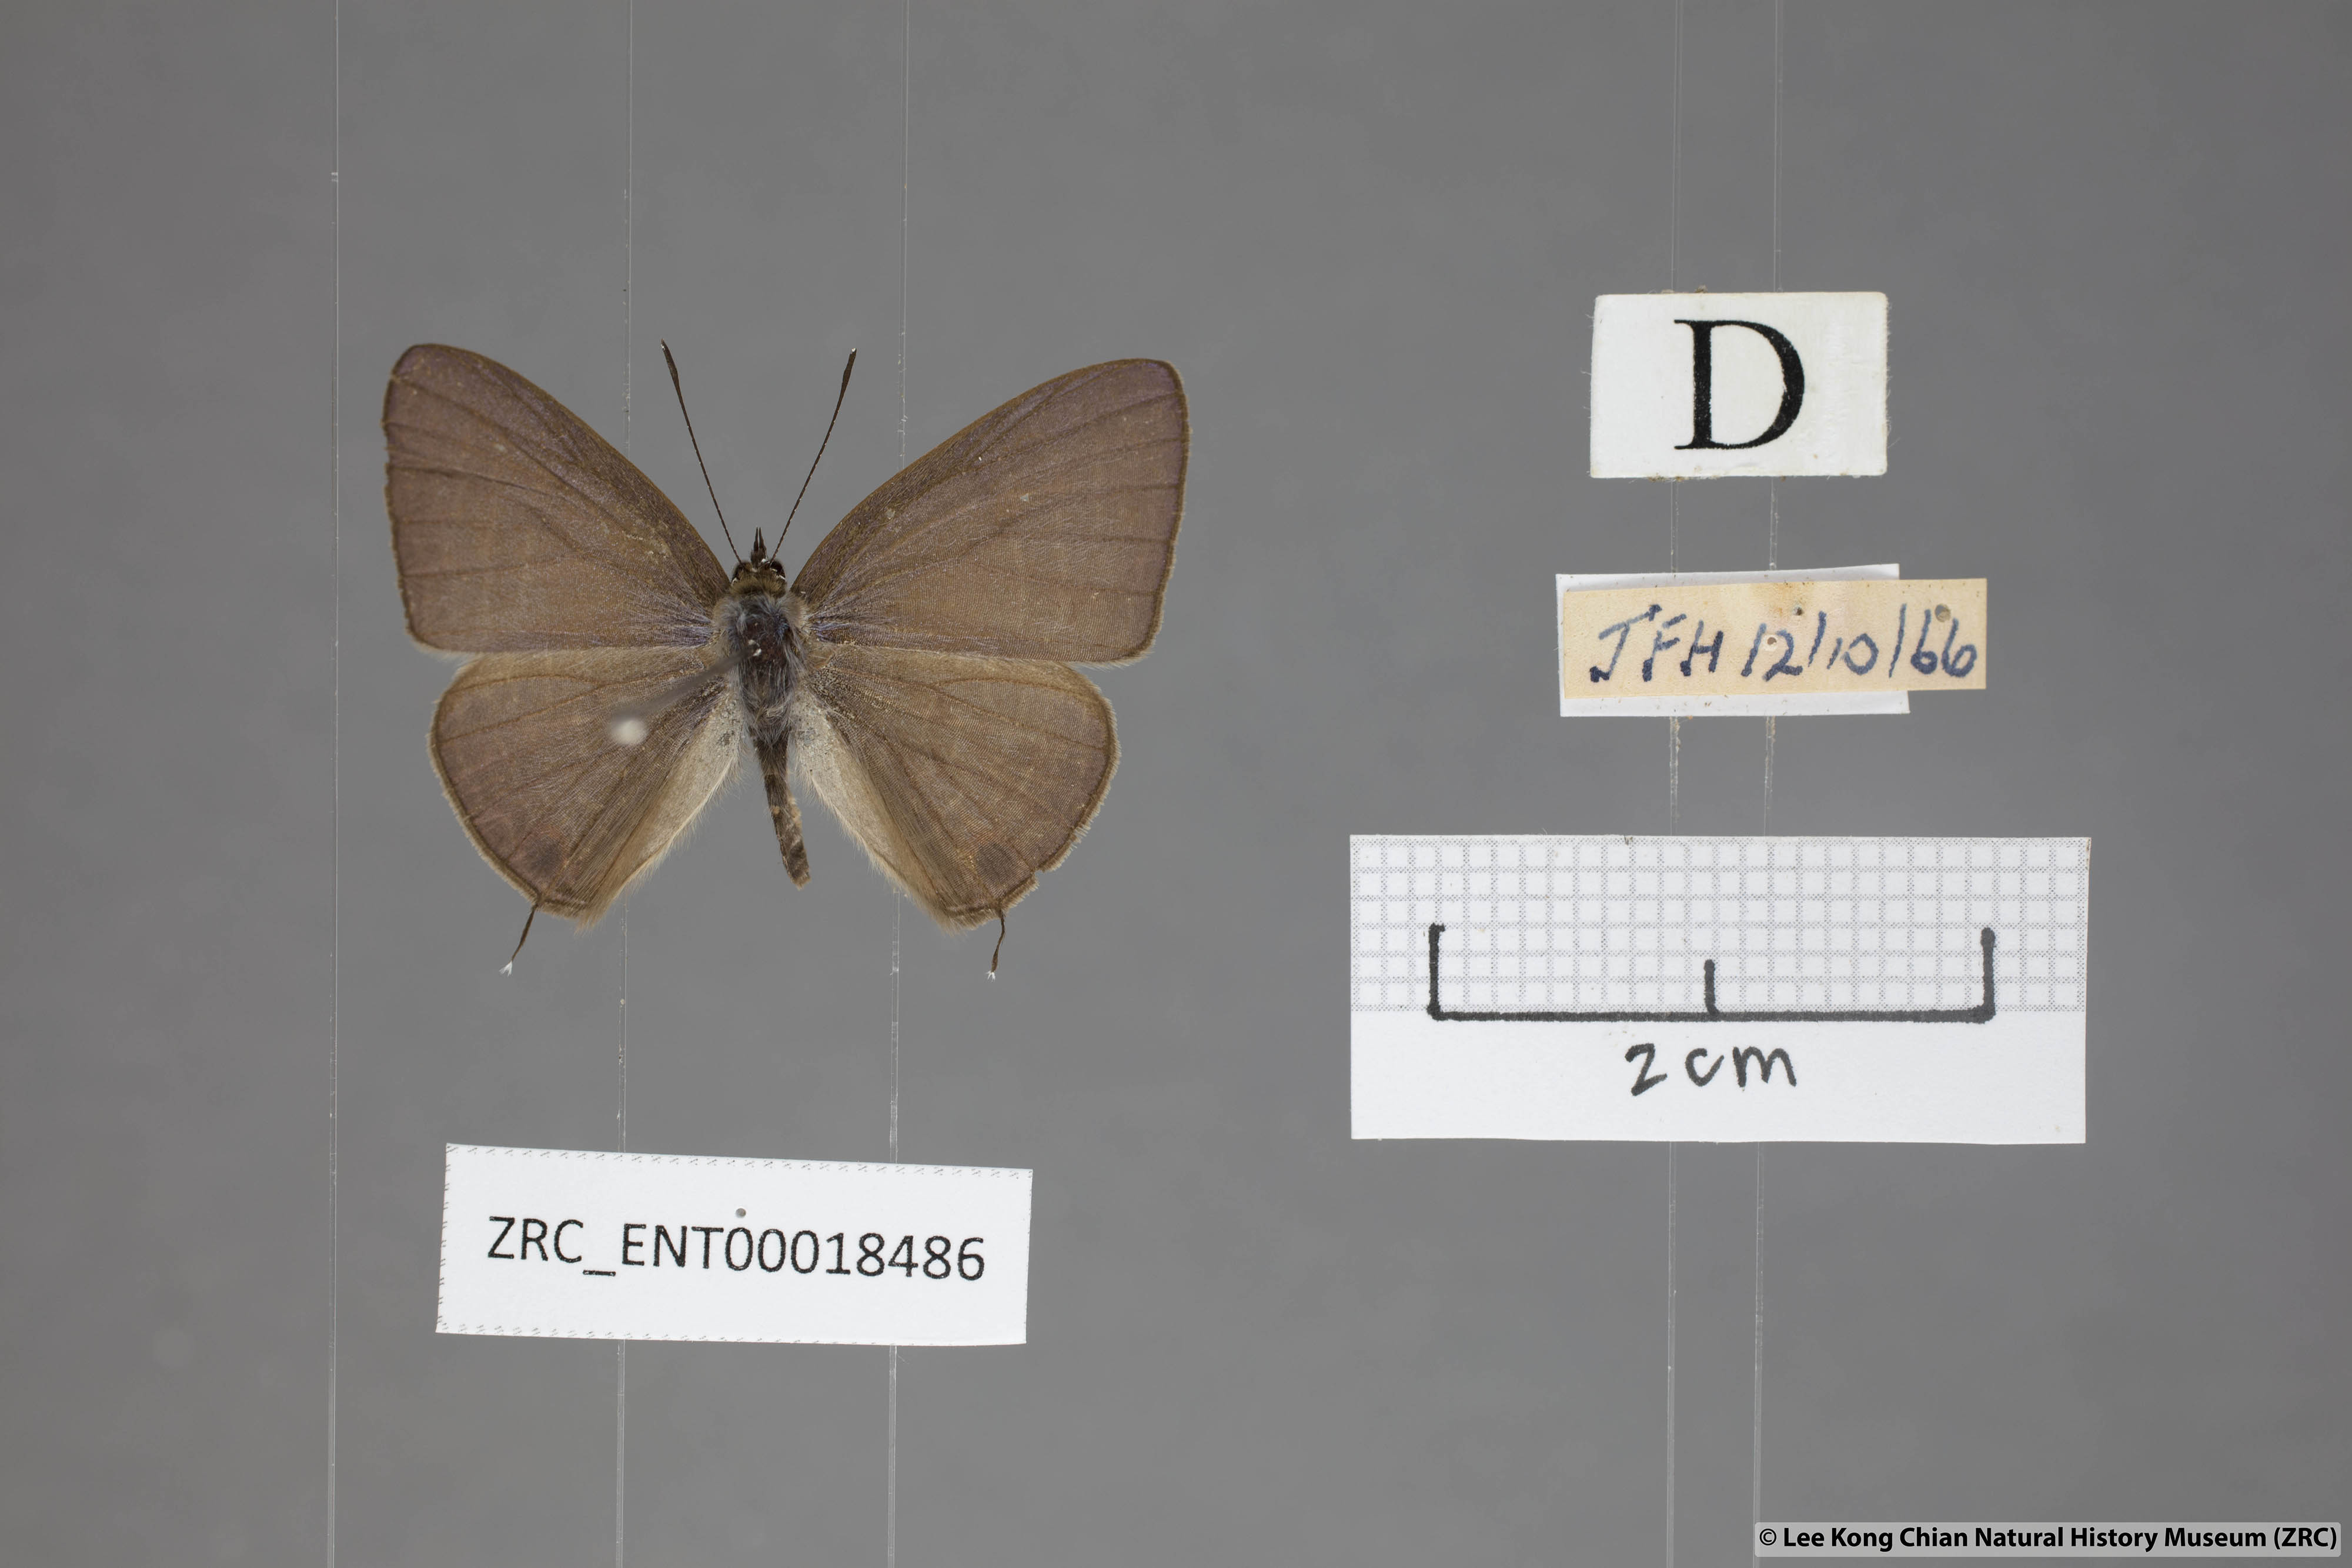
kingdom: Animalia
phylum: Arthropoda
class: Insecta
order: Lepidoptera
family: Lycaenidae
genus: Nacaduba
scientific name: Nacaduba subperusia
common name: Violet fourline blue
